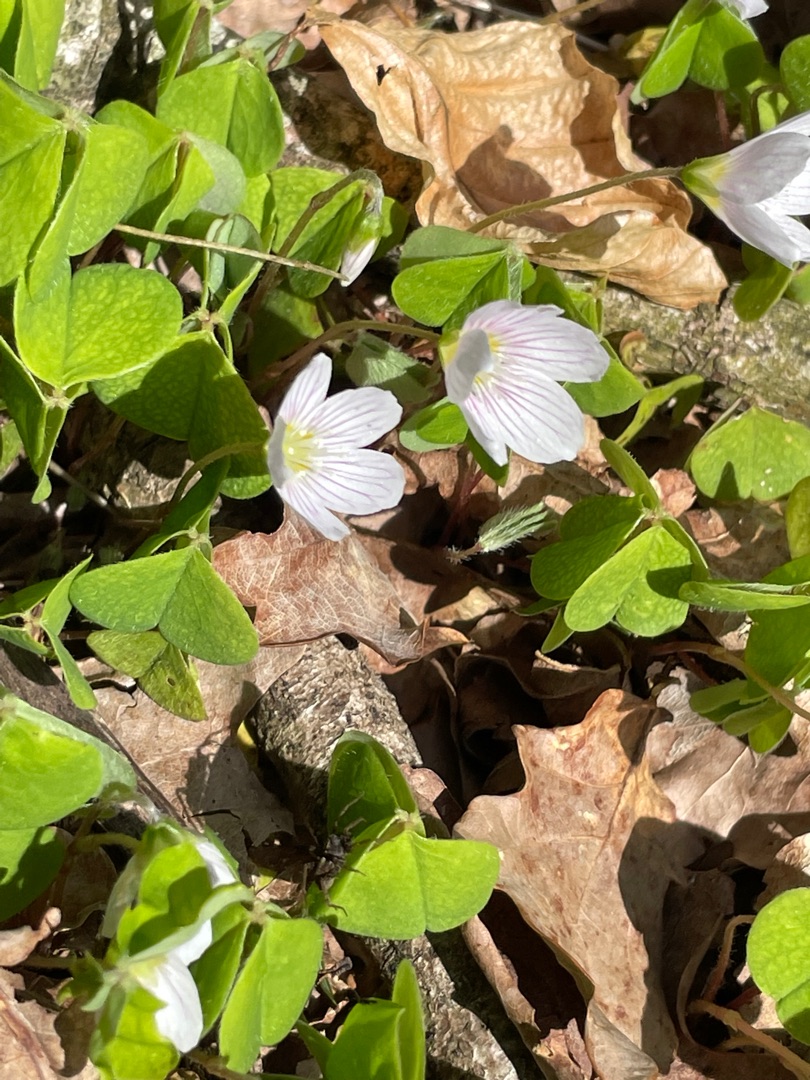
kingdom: Plantae
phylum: Tracheophyta
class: Magnoliopsida
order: Oxalidales
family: Oxalidaceae
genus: Oxalis
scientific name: Oxalis acetosella
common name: Skovsyre
